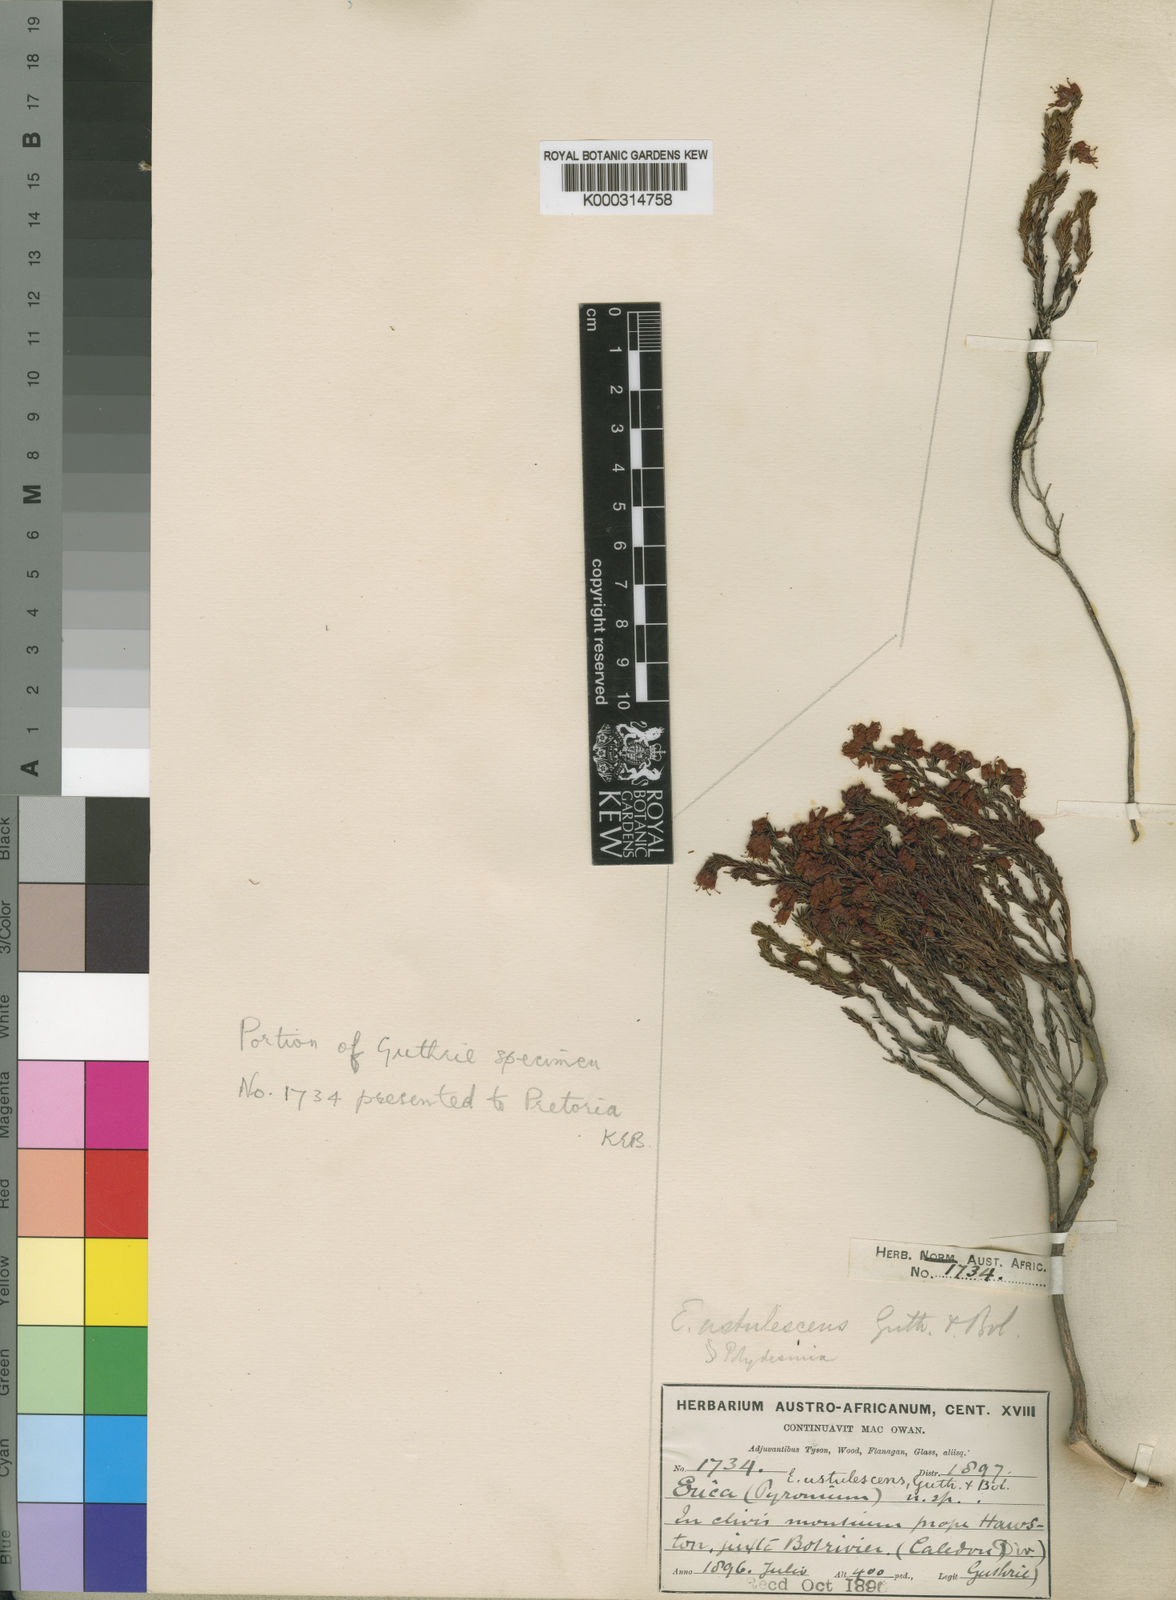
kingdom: Plantae
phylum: Tracheophyta
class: Magnoliopsida
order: Ericales
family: Ericaceae
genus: Erica
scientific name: Erica ustulescens
